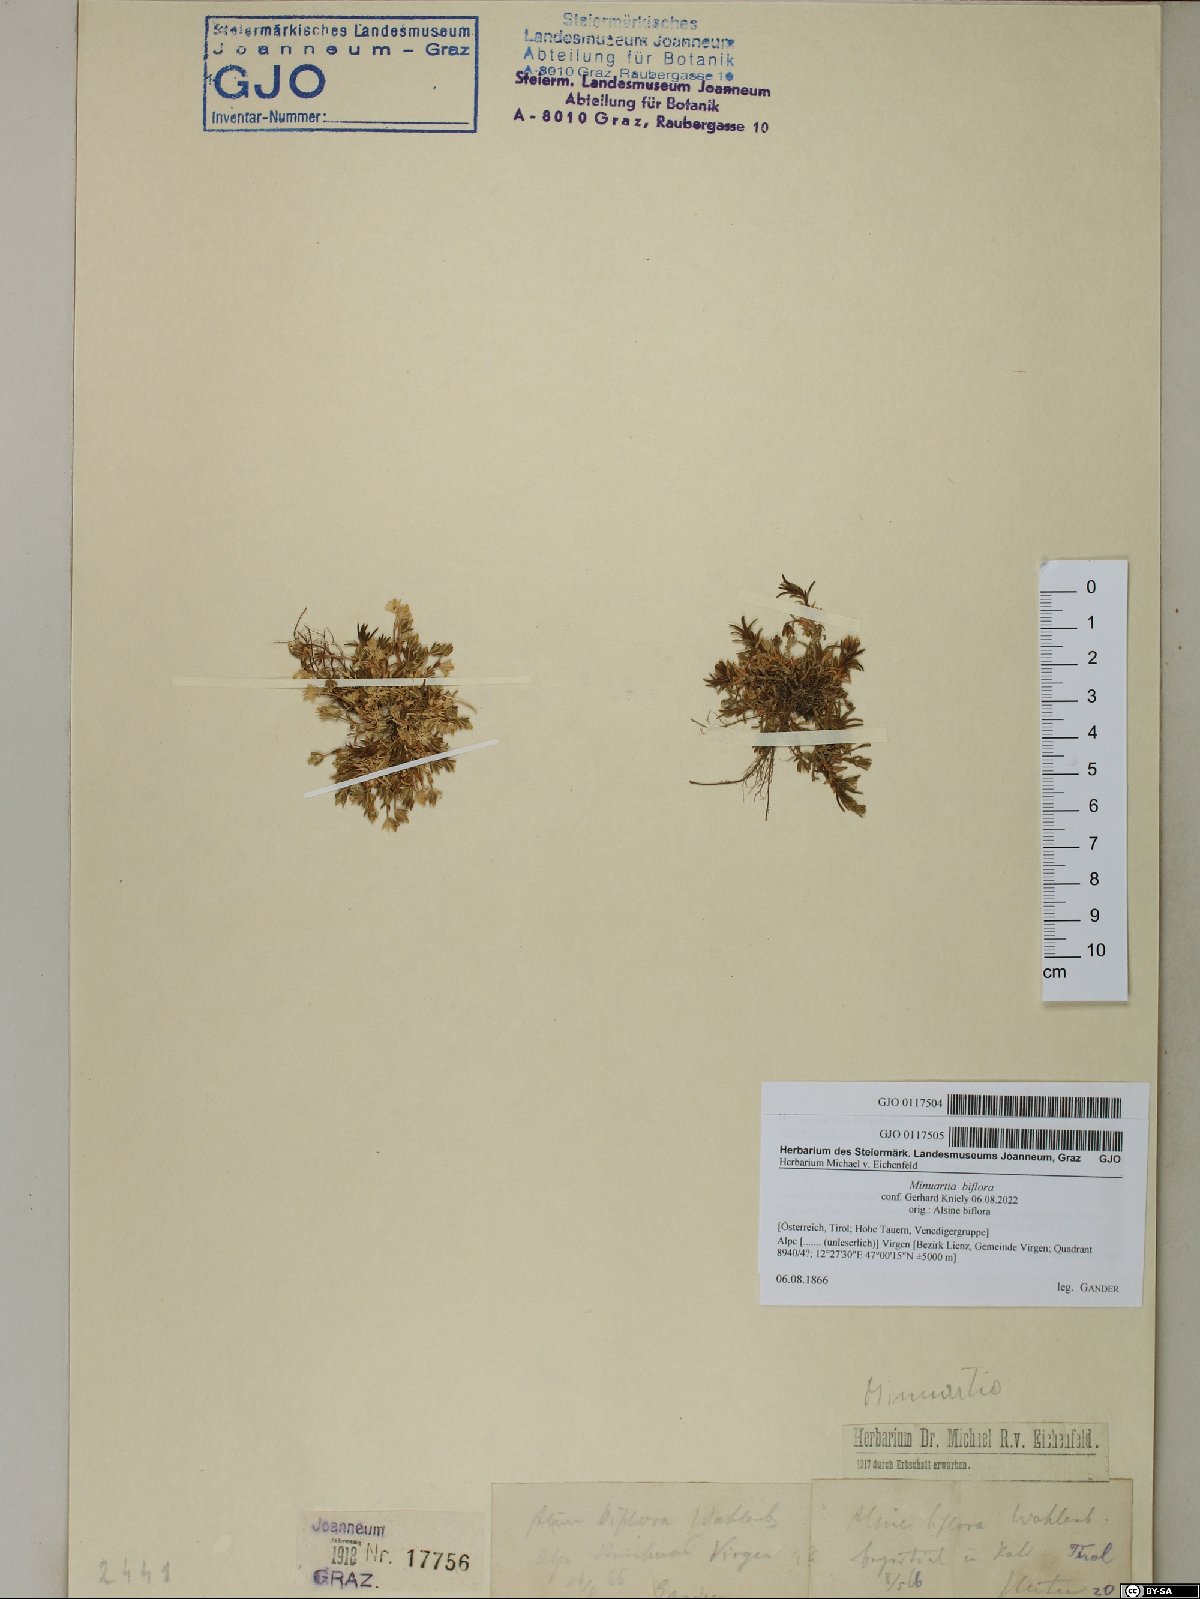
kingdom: Plantae
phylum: Tracheophyta
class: Magnoliopsida
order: Caryophyllales
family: Caryophyllaceae
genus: Cherleria
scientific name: Cherleria biflora
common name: Mountain sandwort
